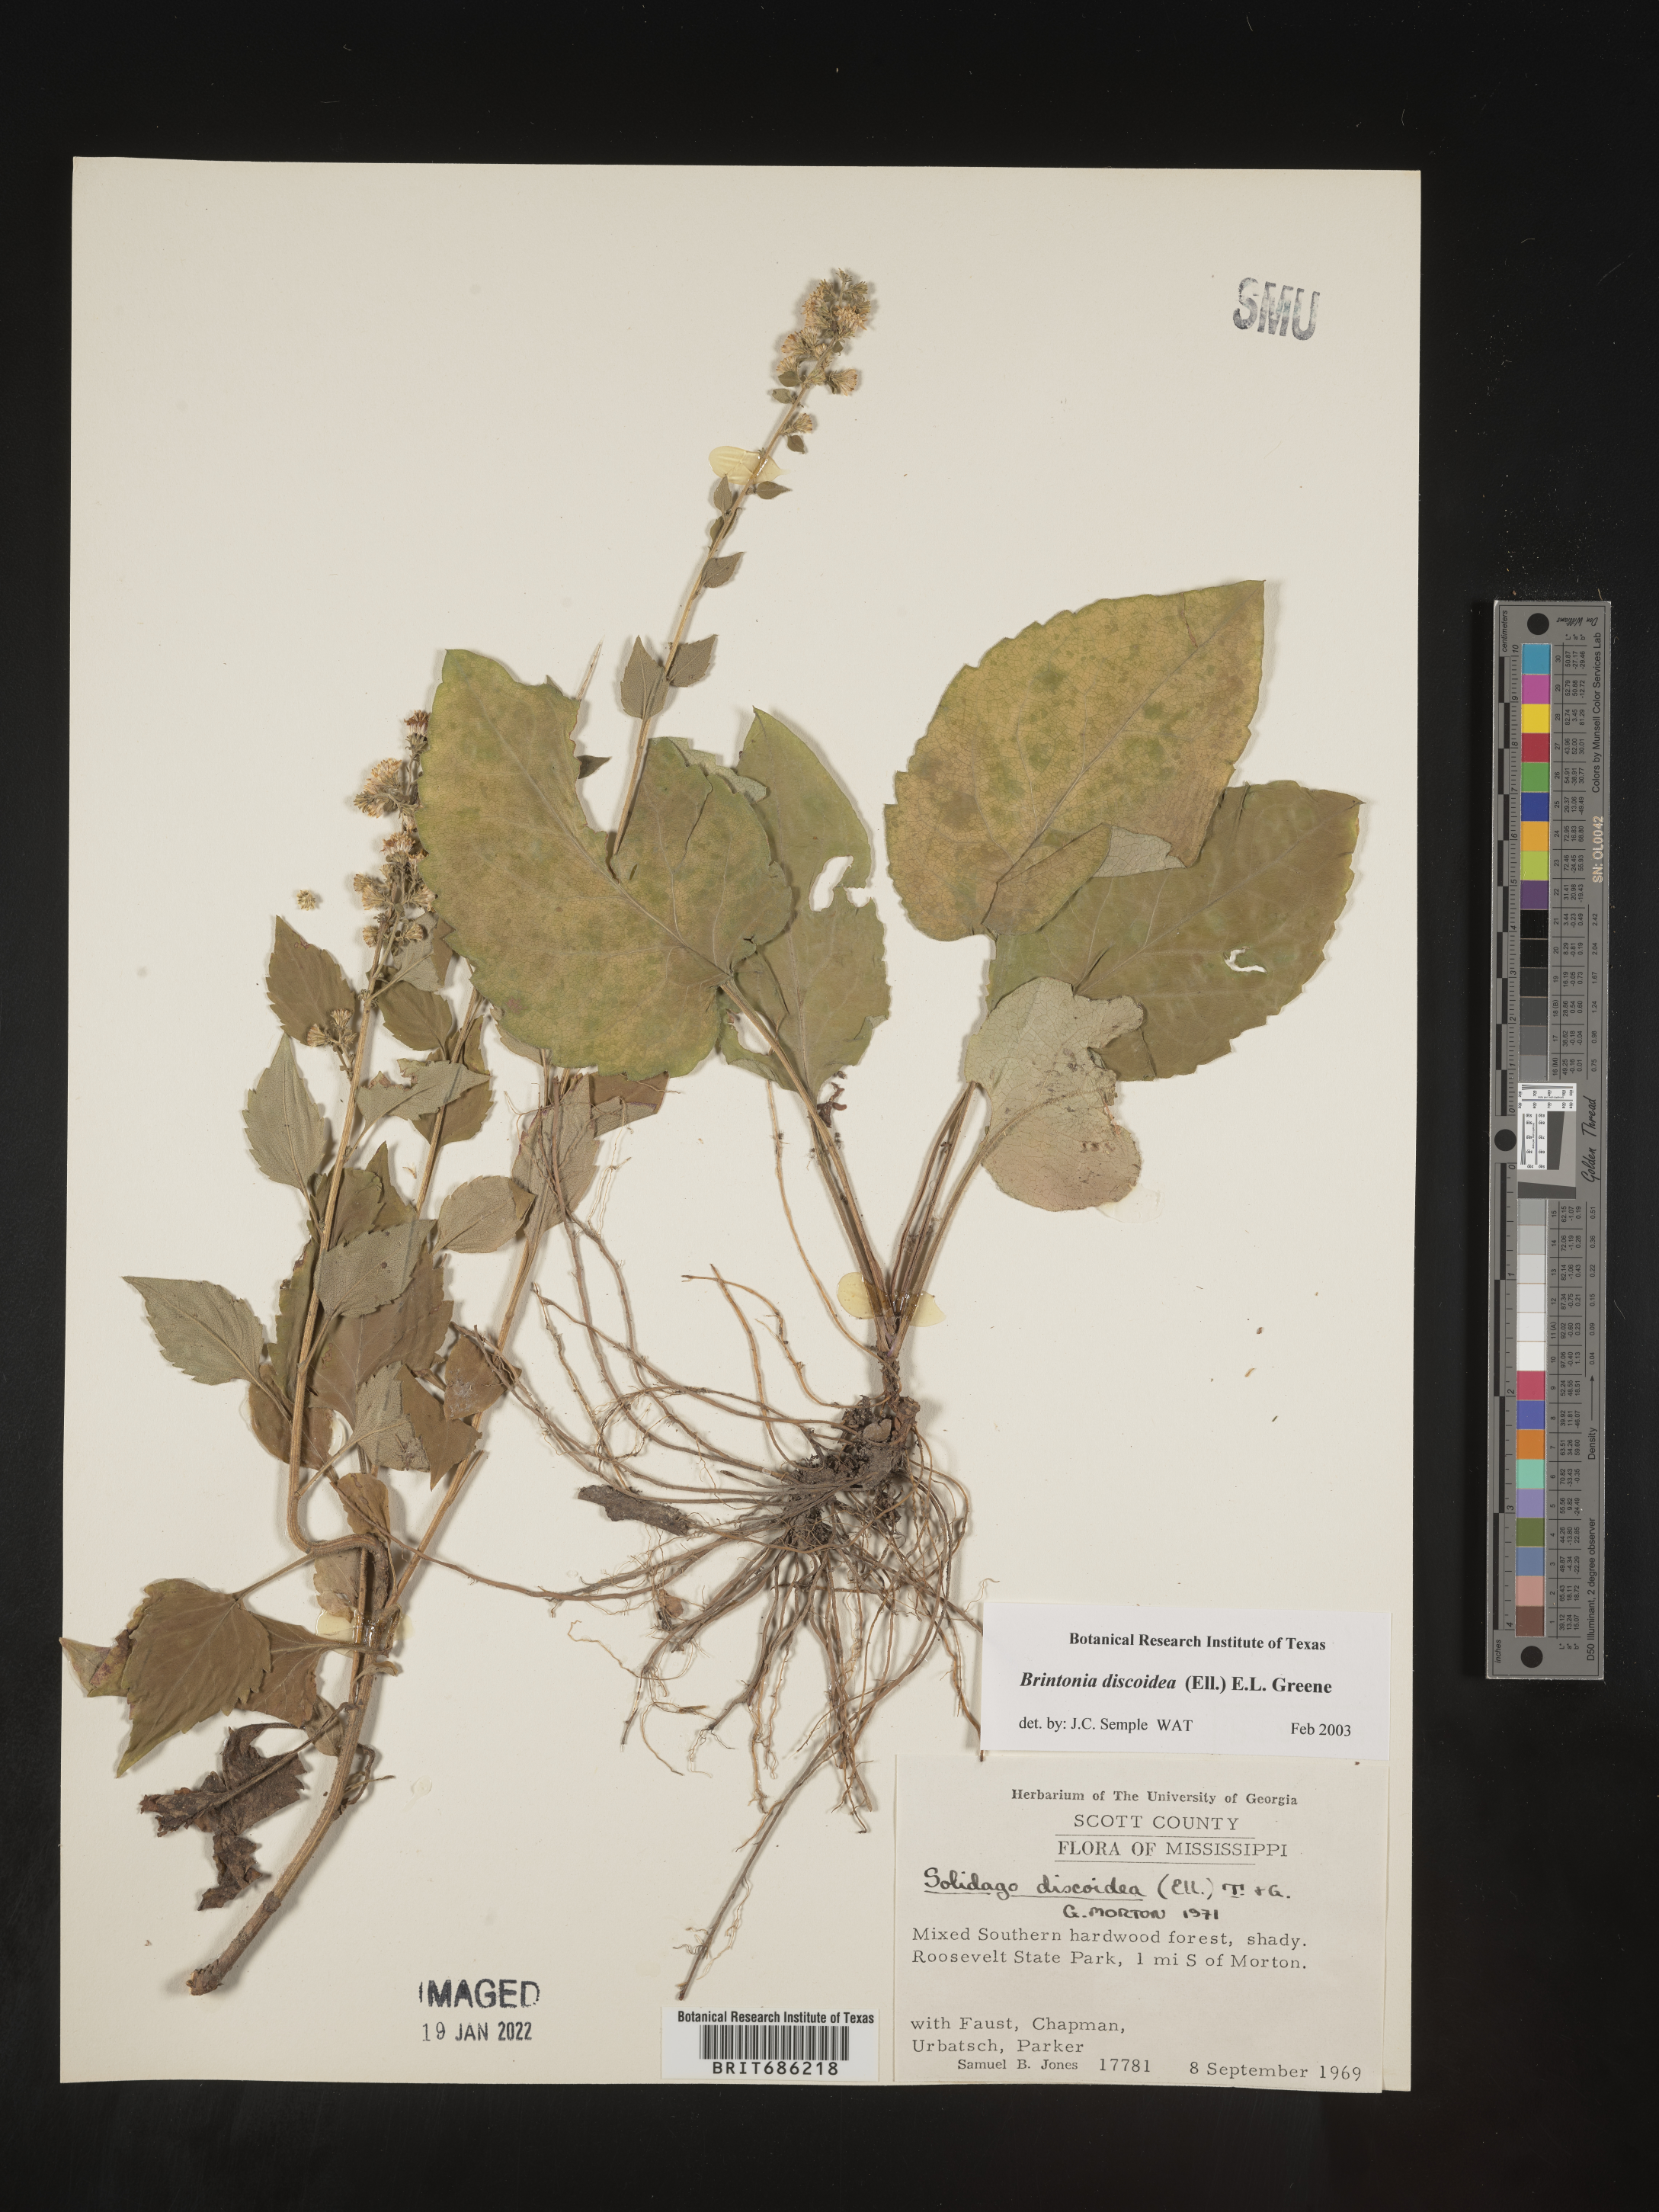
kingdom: Plantae
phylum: Tracheophyta
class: Magnoliopsida
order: Asterales
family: Asteraceae
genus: Solidago
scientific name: Solidago discoidea
